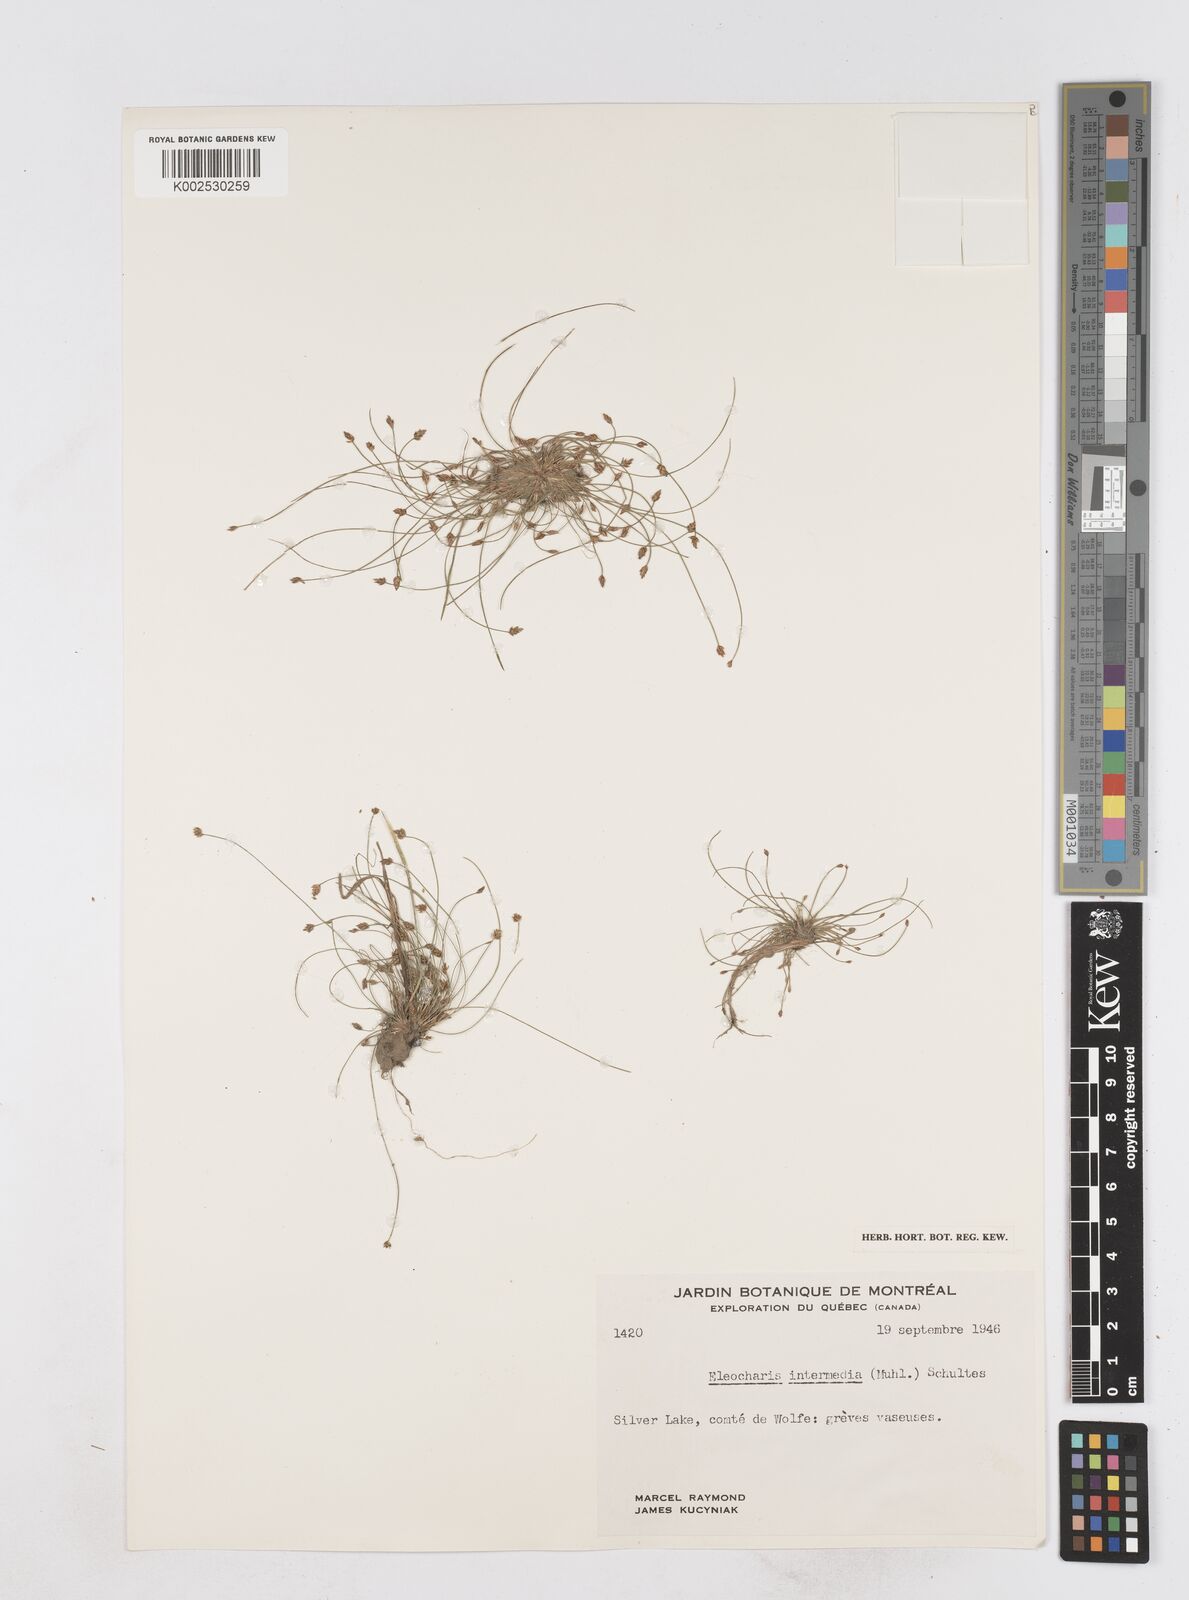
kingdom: Plantae
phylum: Tracheophyta
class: Liliopsida
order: Poales
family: Cyperaceae
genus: Eleocharis
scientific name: Eleocharis intermedia
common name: Intermediate spikerush
